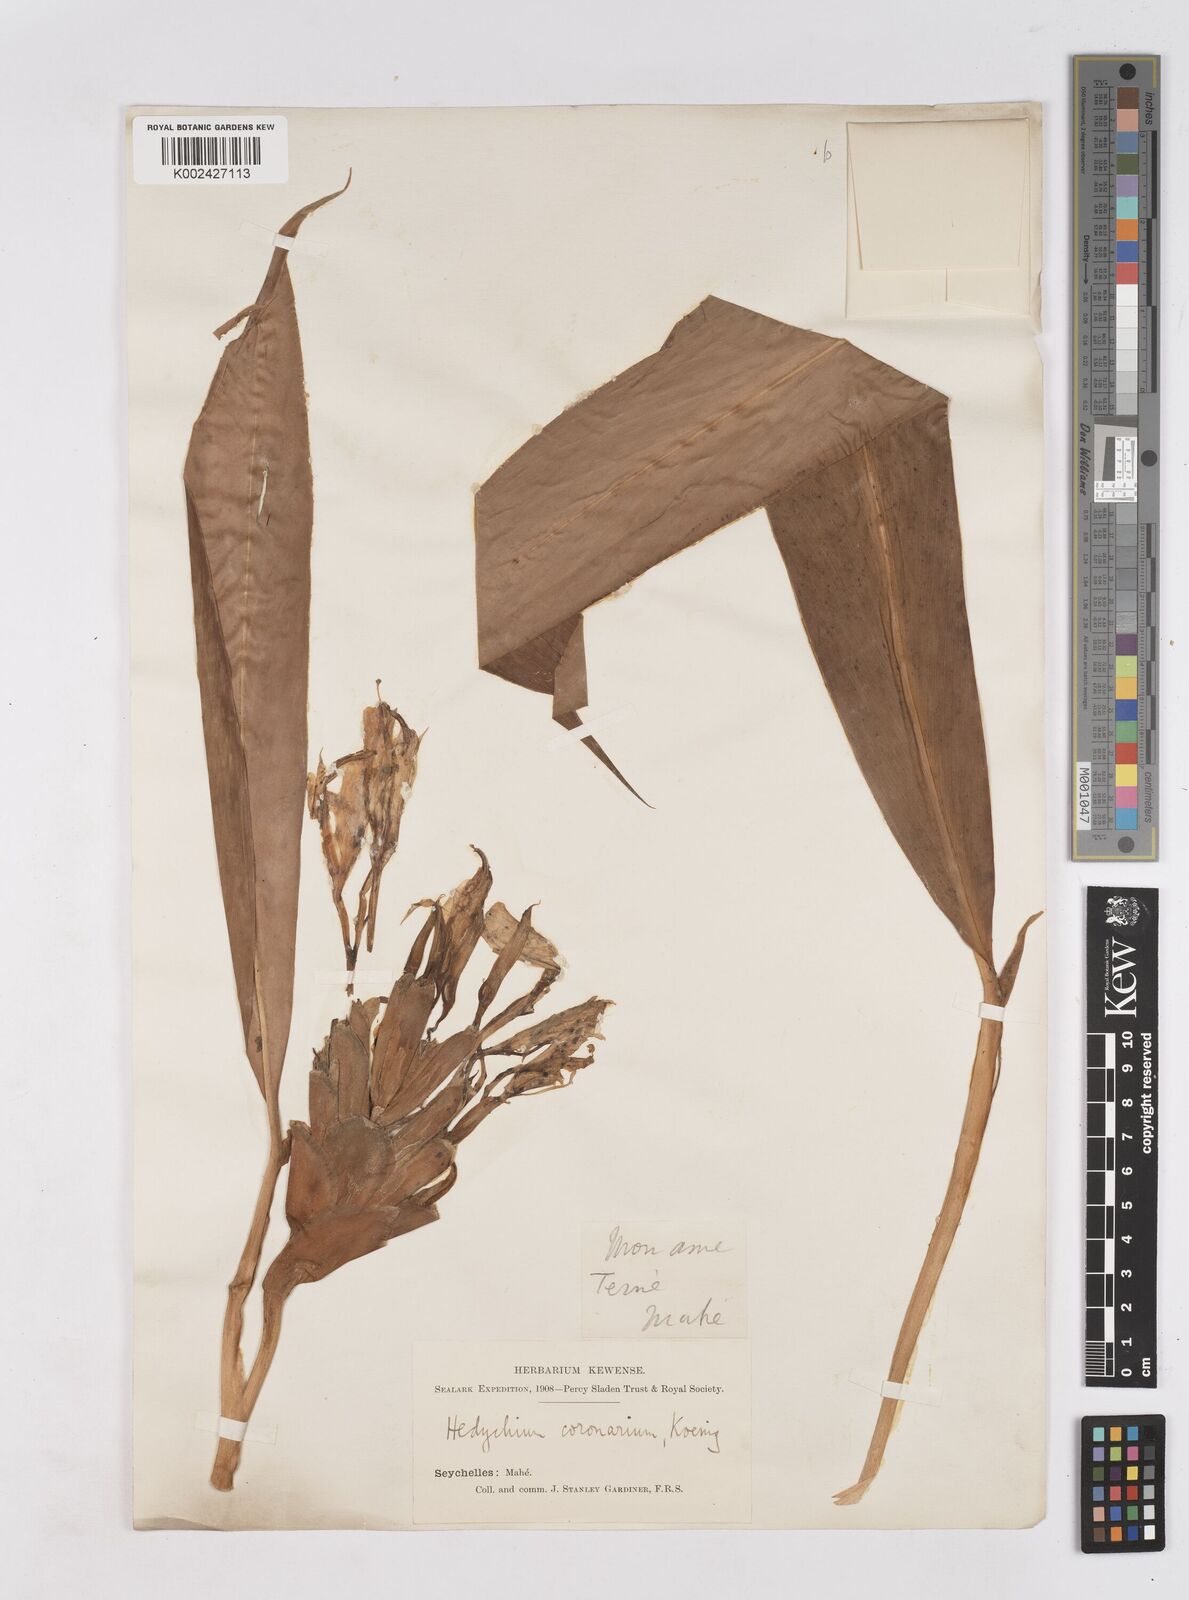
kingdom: Plantae
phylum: Tracheophyta
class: Liliopsida
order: Zingiberales
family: Zingiberaceae
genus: Hedychium
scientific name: Hedychium coronarium
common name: White garland-lily
